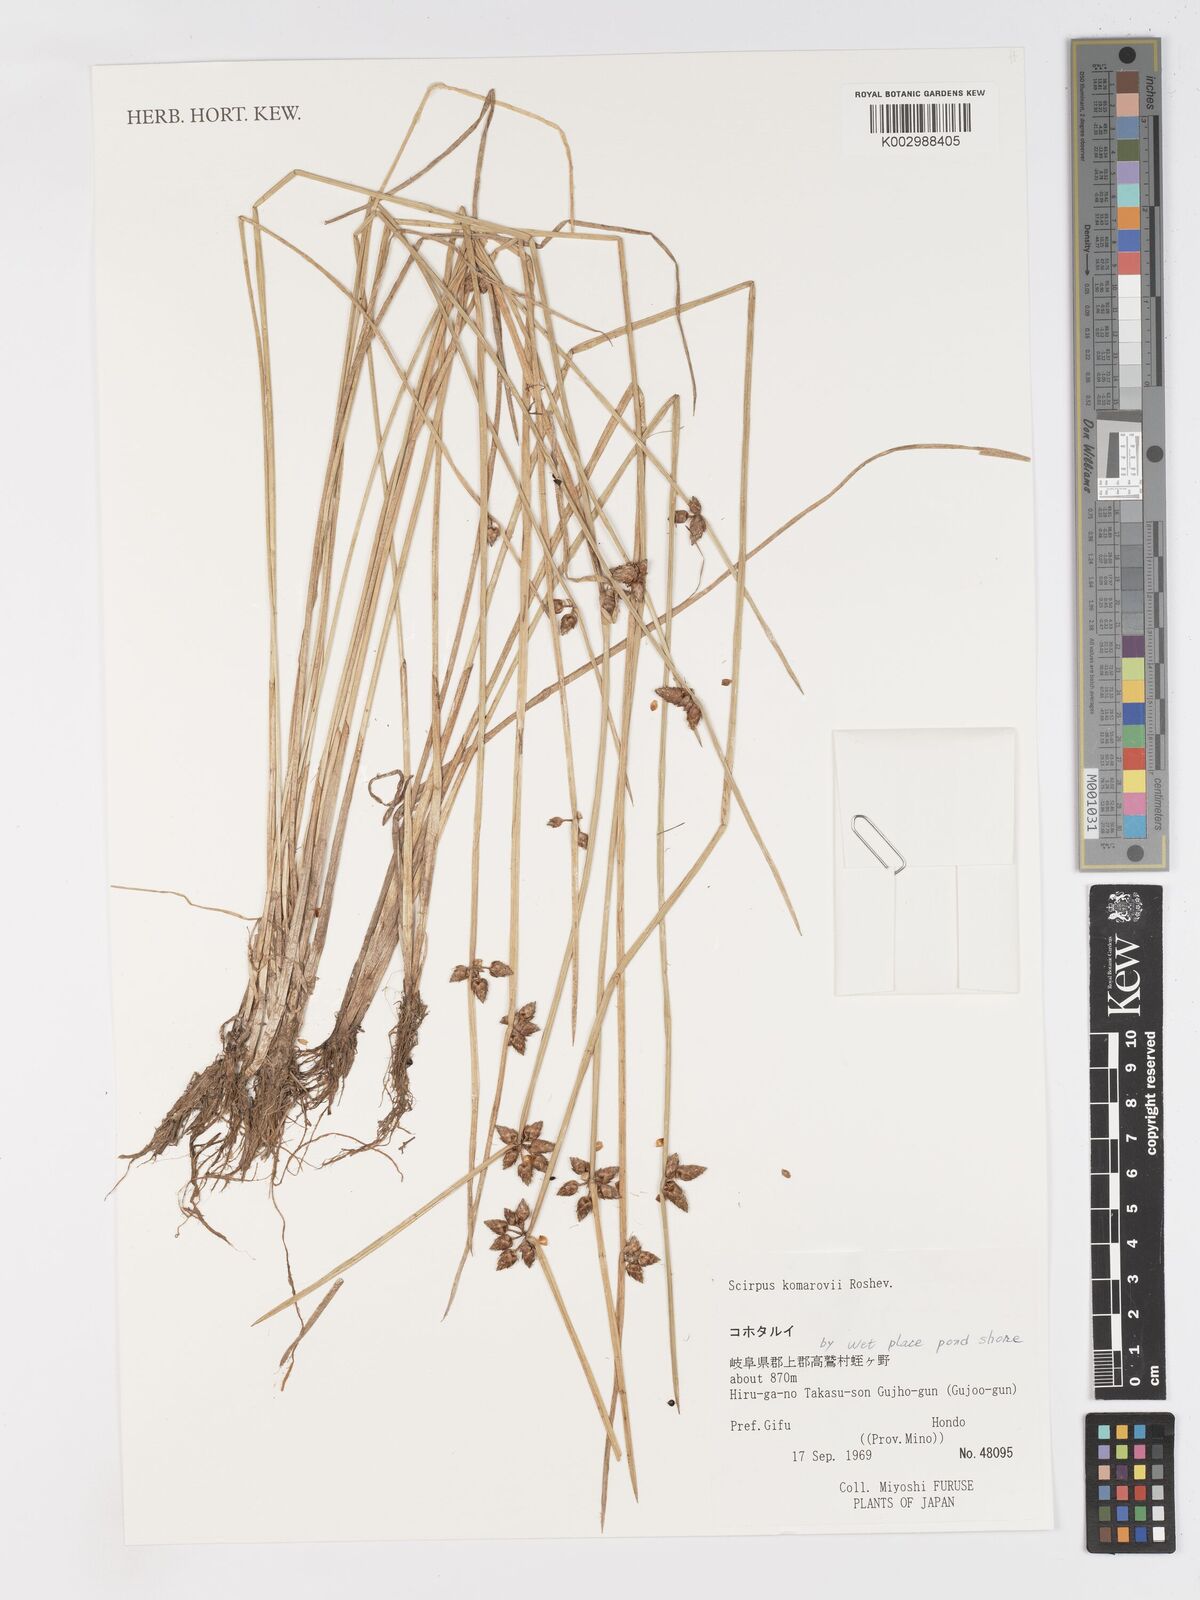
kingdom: Plantae
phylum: Tracheophyta
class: Liliopsida
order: Poales
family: Cyperaceae
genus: Schoenoplectiella
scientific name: Schoenoplectiella komarovii
